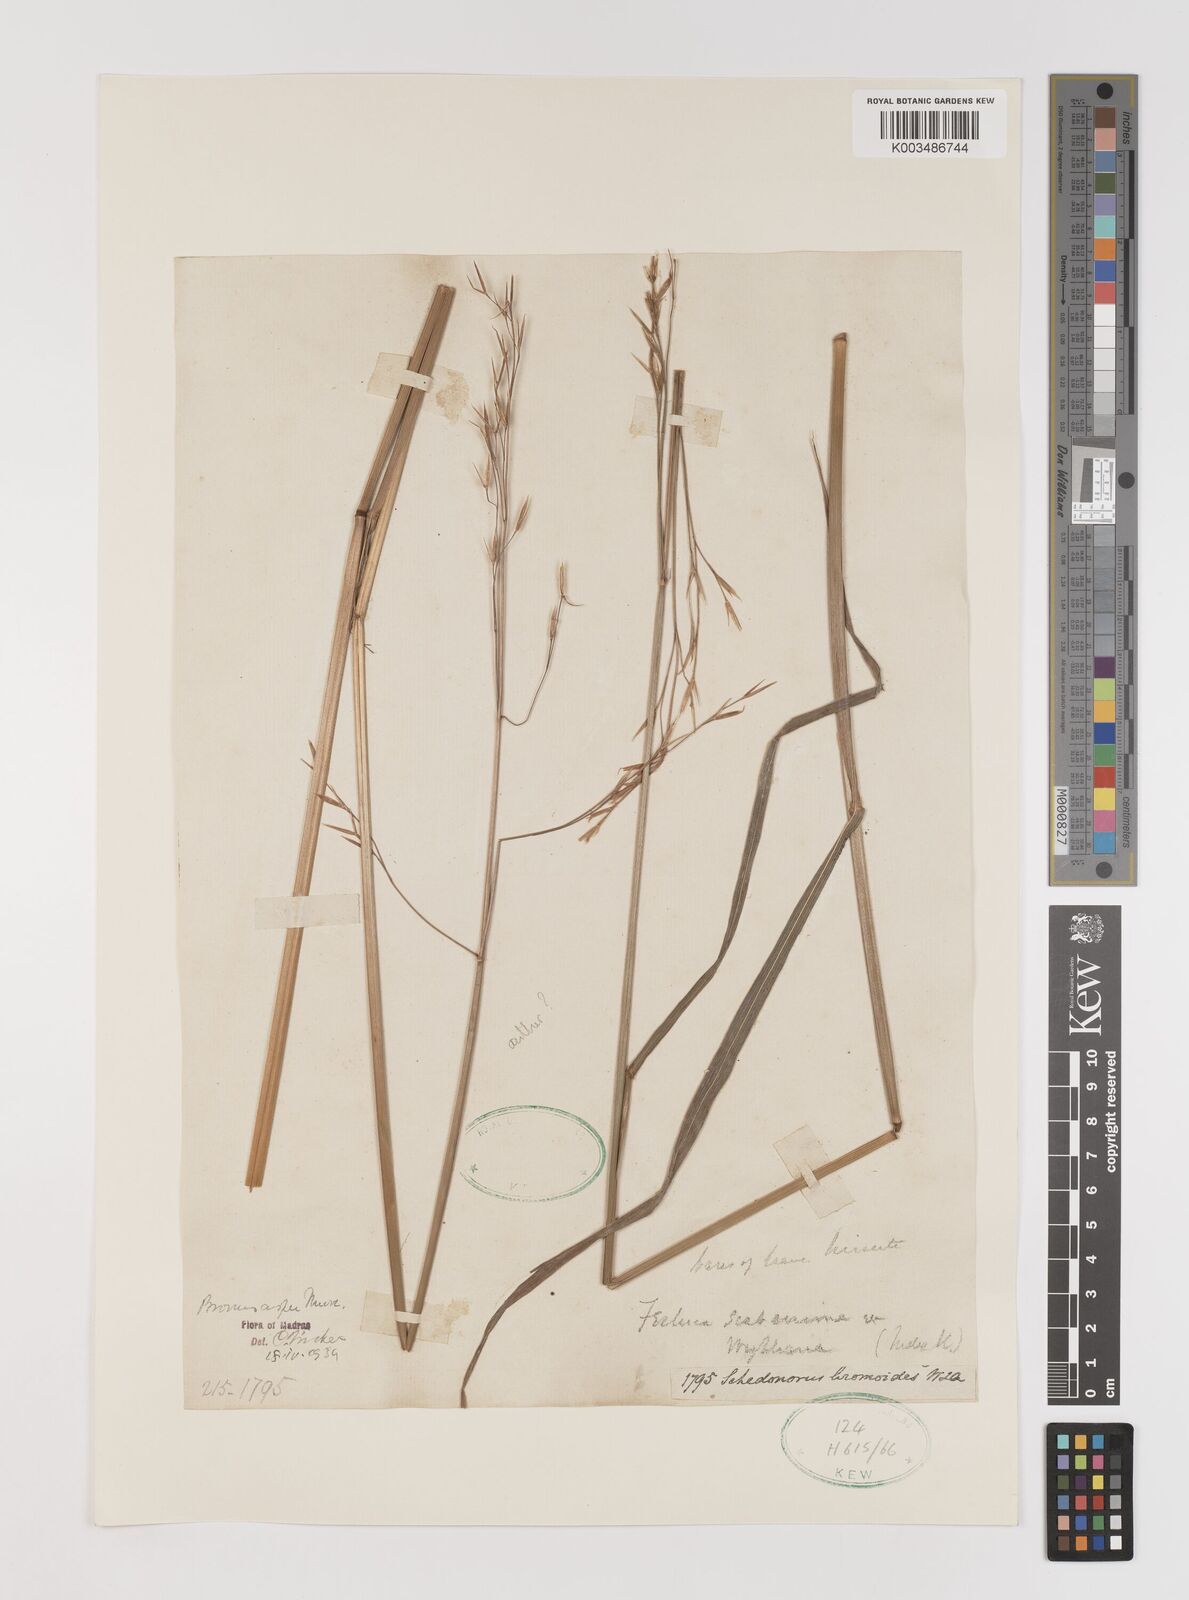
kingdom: Plantae
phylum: Tracheophyta
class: Liliopsida
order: Poales
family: Poaceae
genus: Brachypodium
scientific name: Brachypodium retusum
